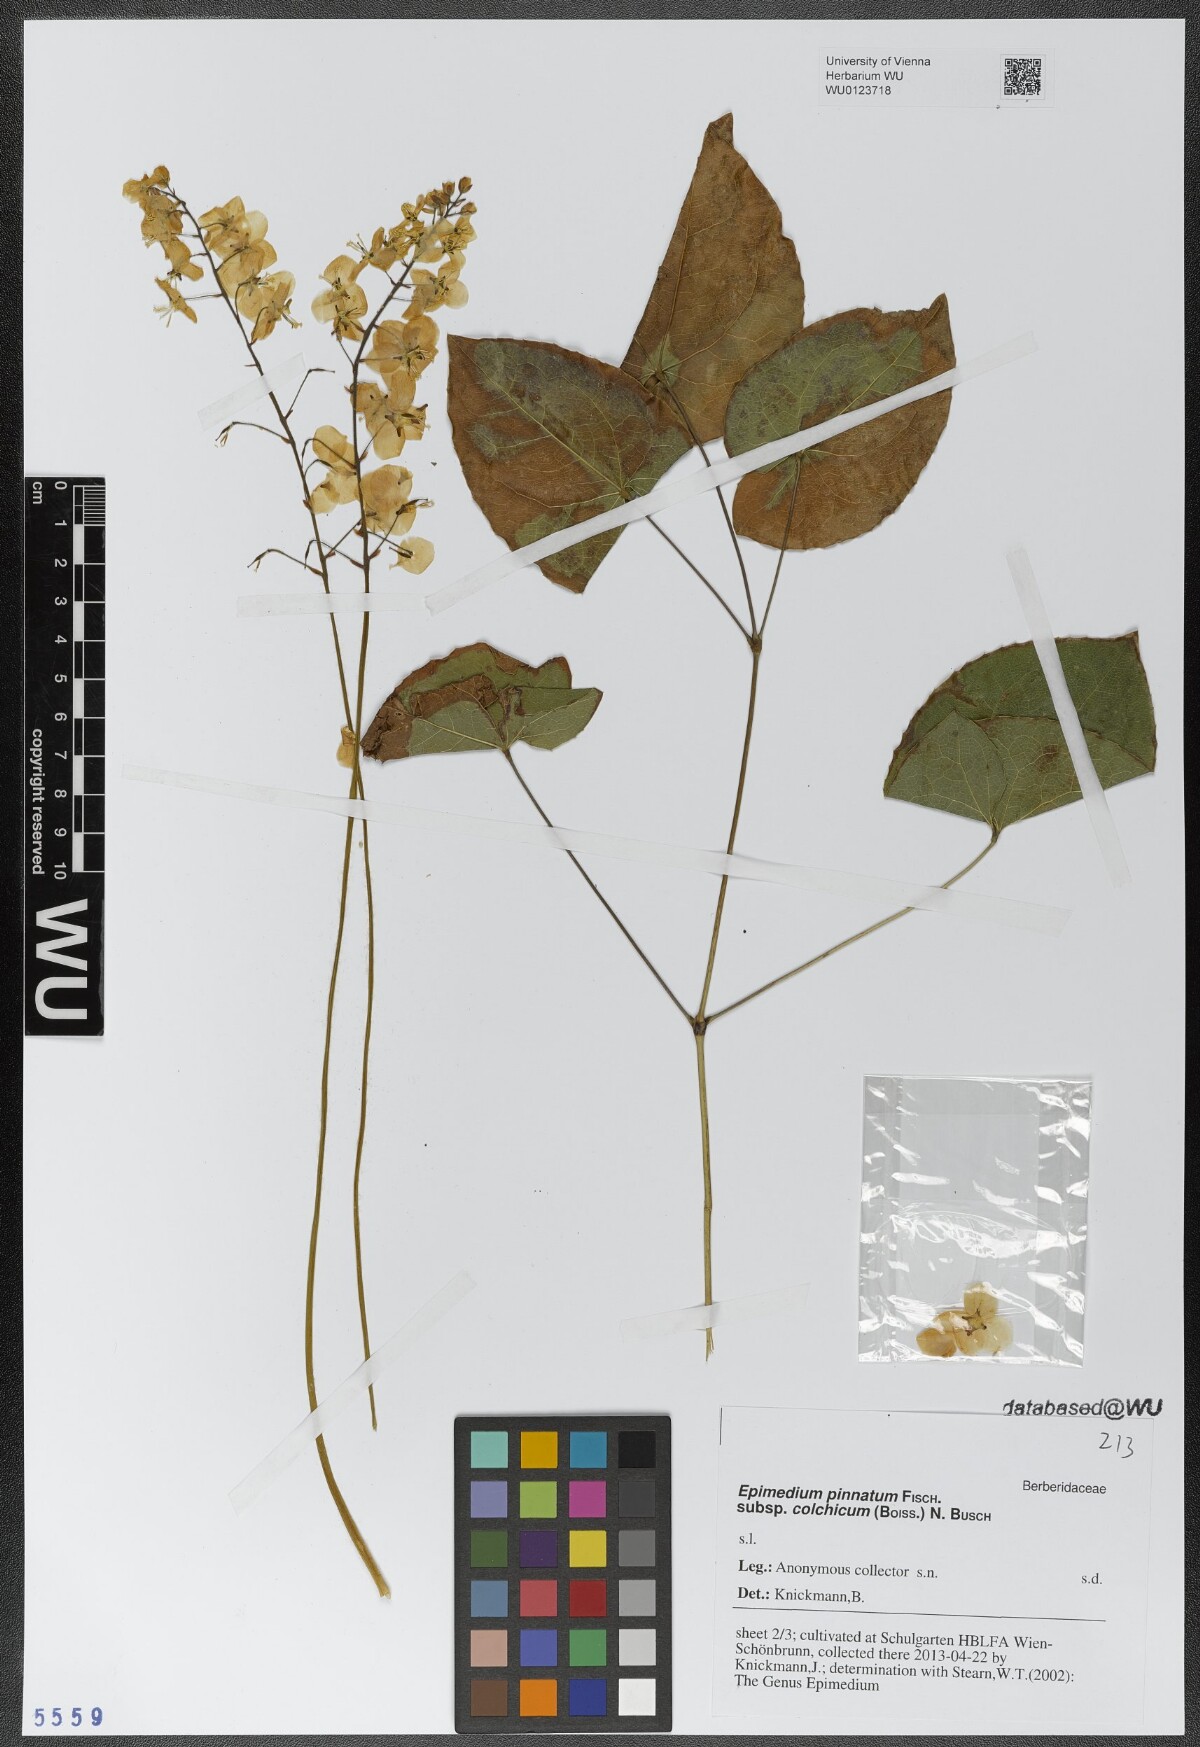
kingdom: Plantae
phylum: Tracheophyta
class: Magnoliopsida
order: Ranunculales
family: Berberidaceae
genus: Epimedium
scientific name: Epimedium pinnatum
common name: Caucasian barrenwort
